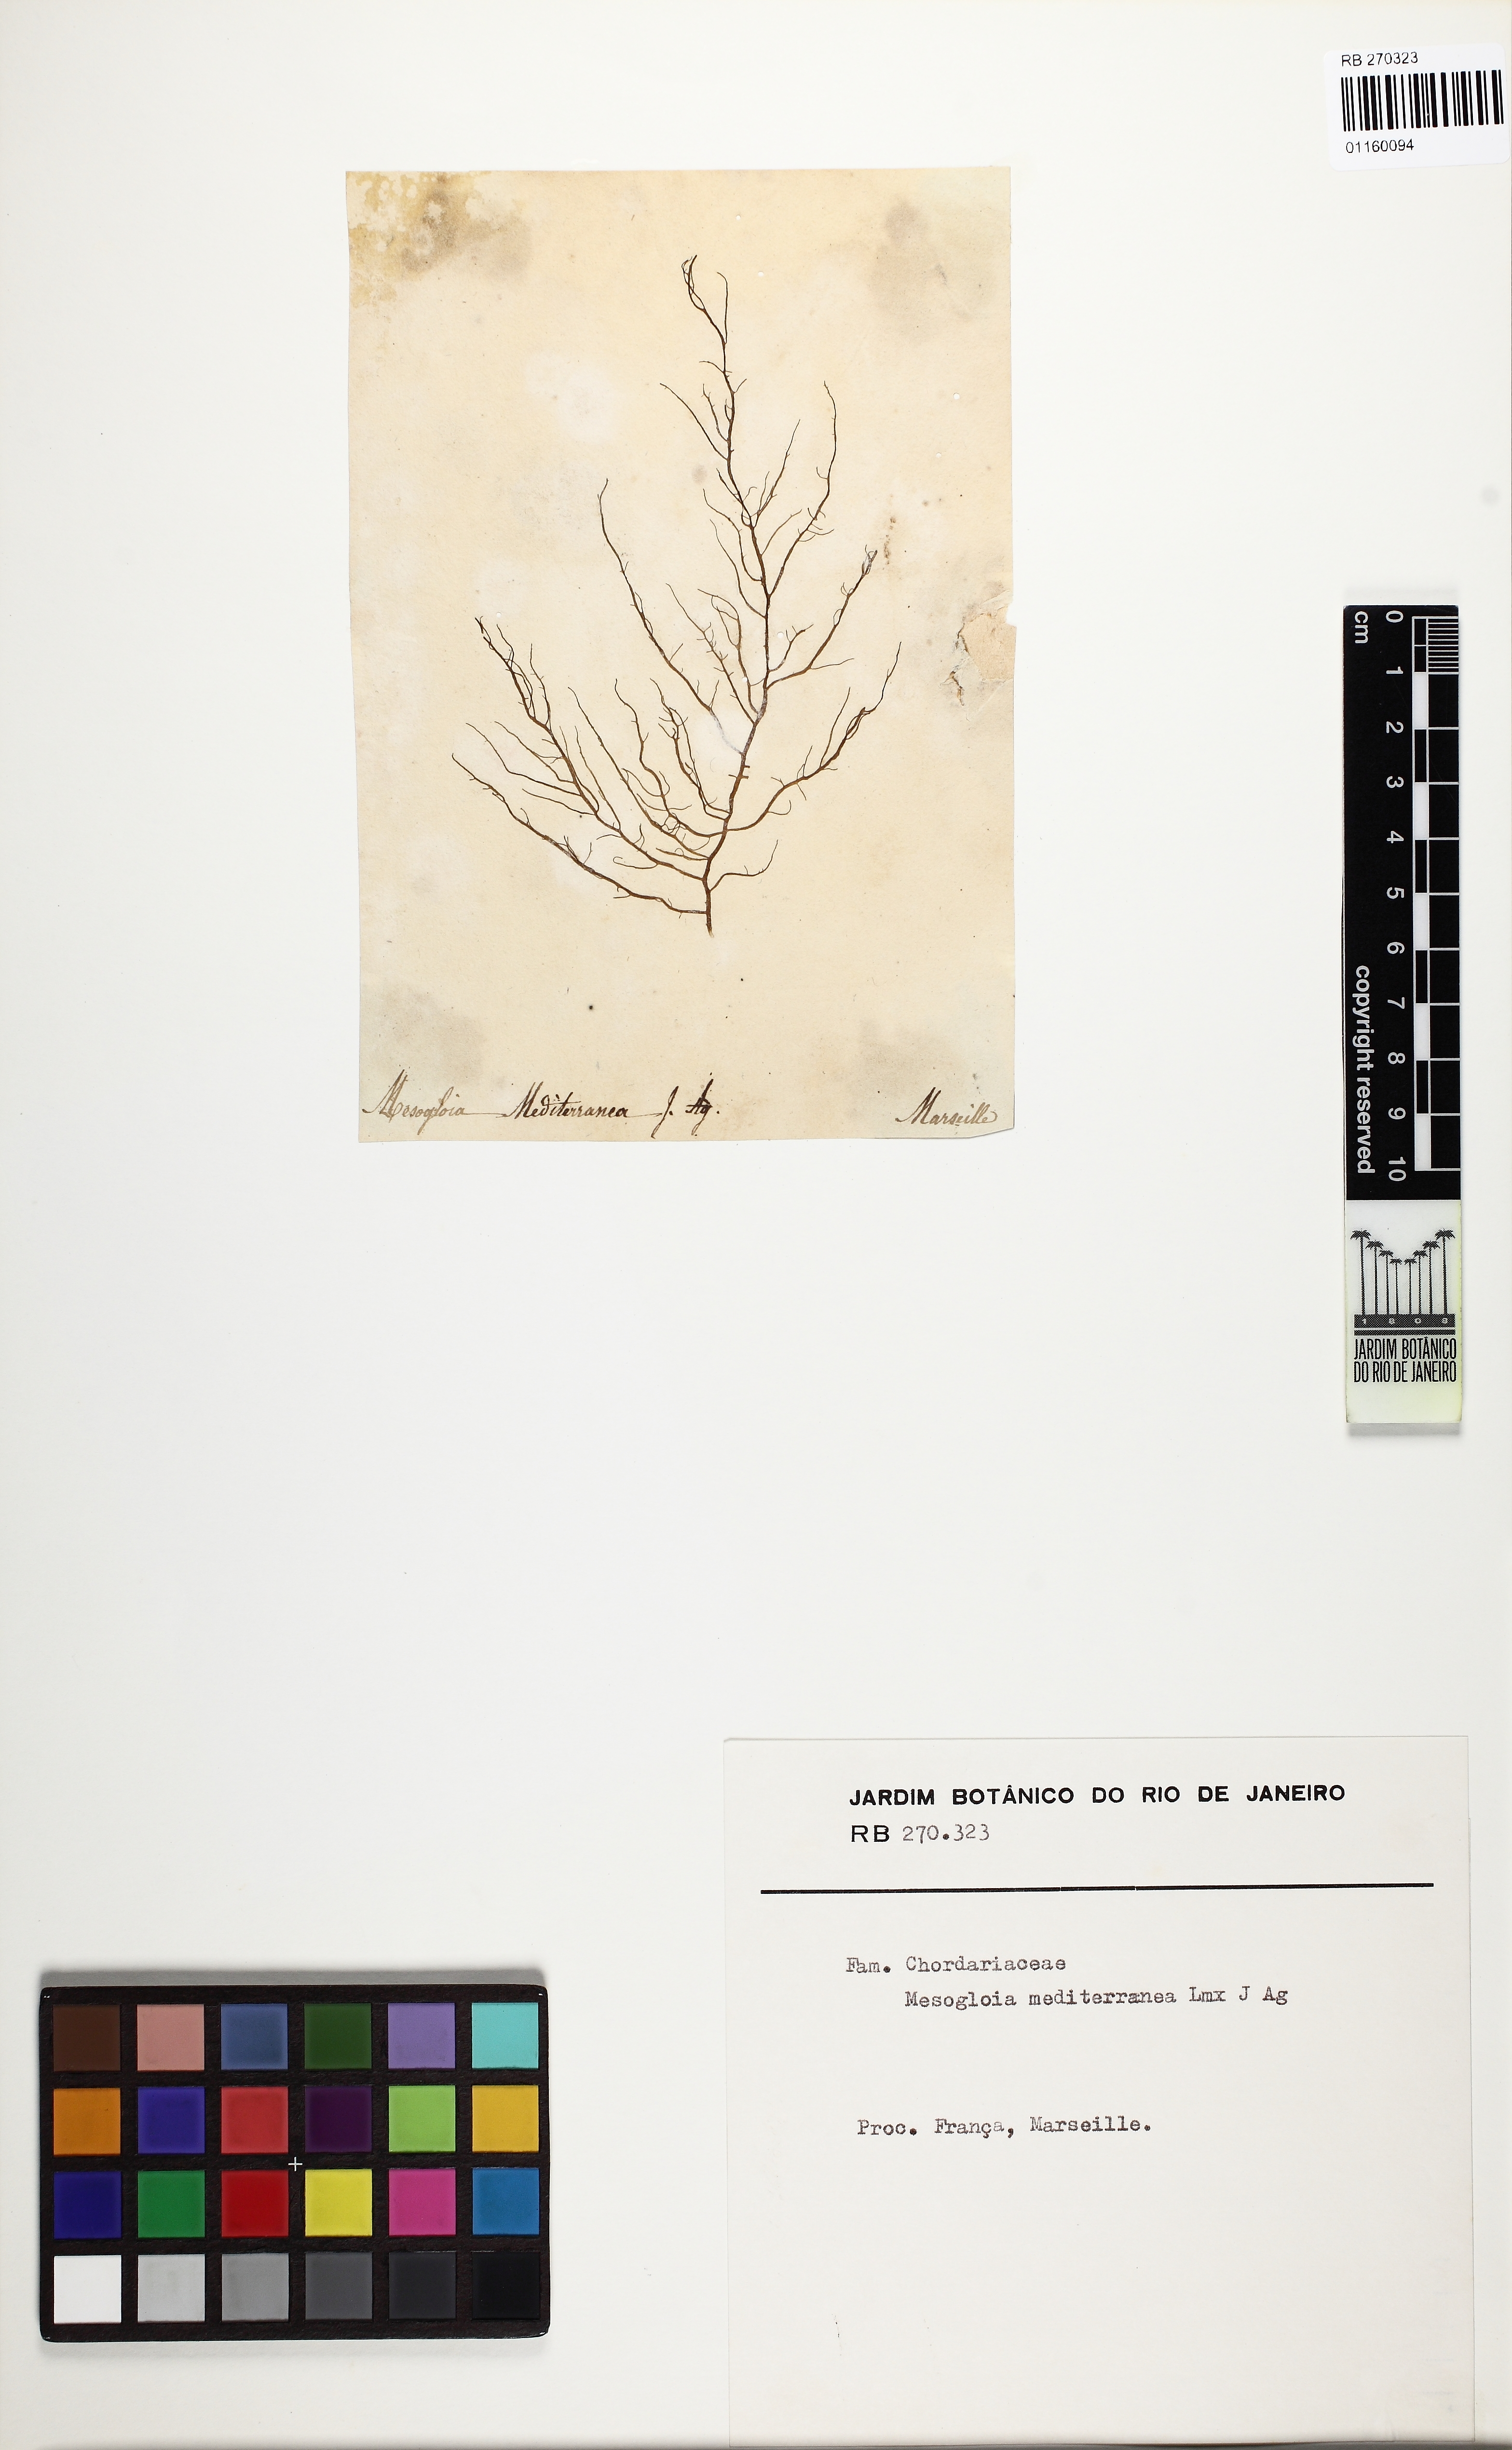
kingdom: Chromista
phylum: Ochrophyta
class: Phaeophyceae
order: Ectocarpales
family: Chordariaceae
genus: Mesogloia
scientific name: Mesogloia mediterranea
